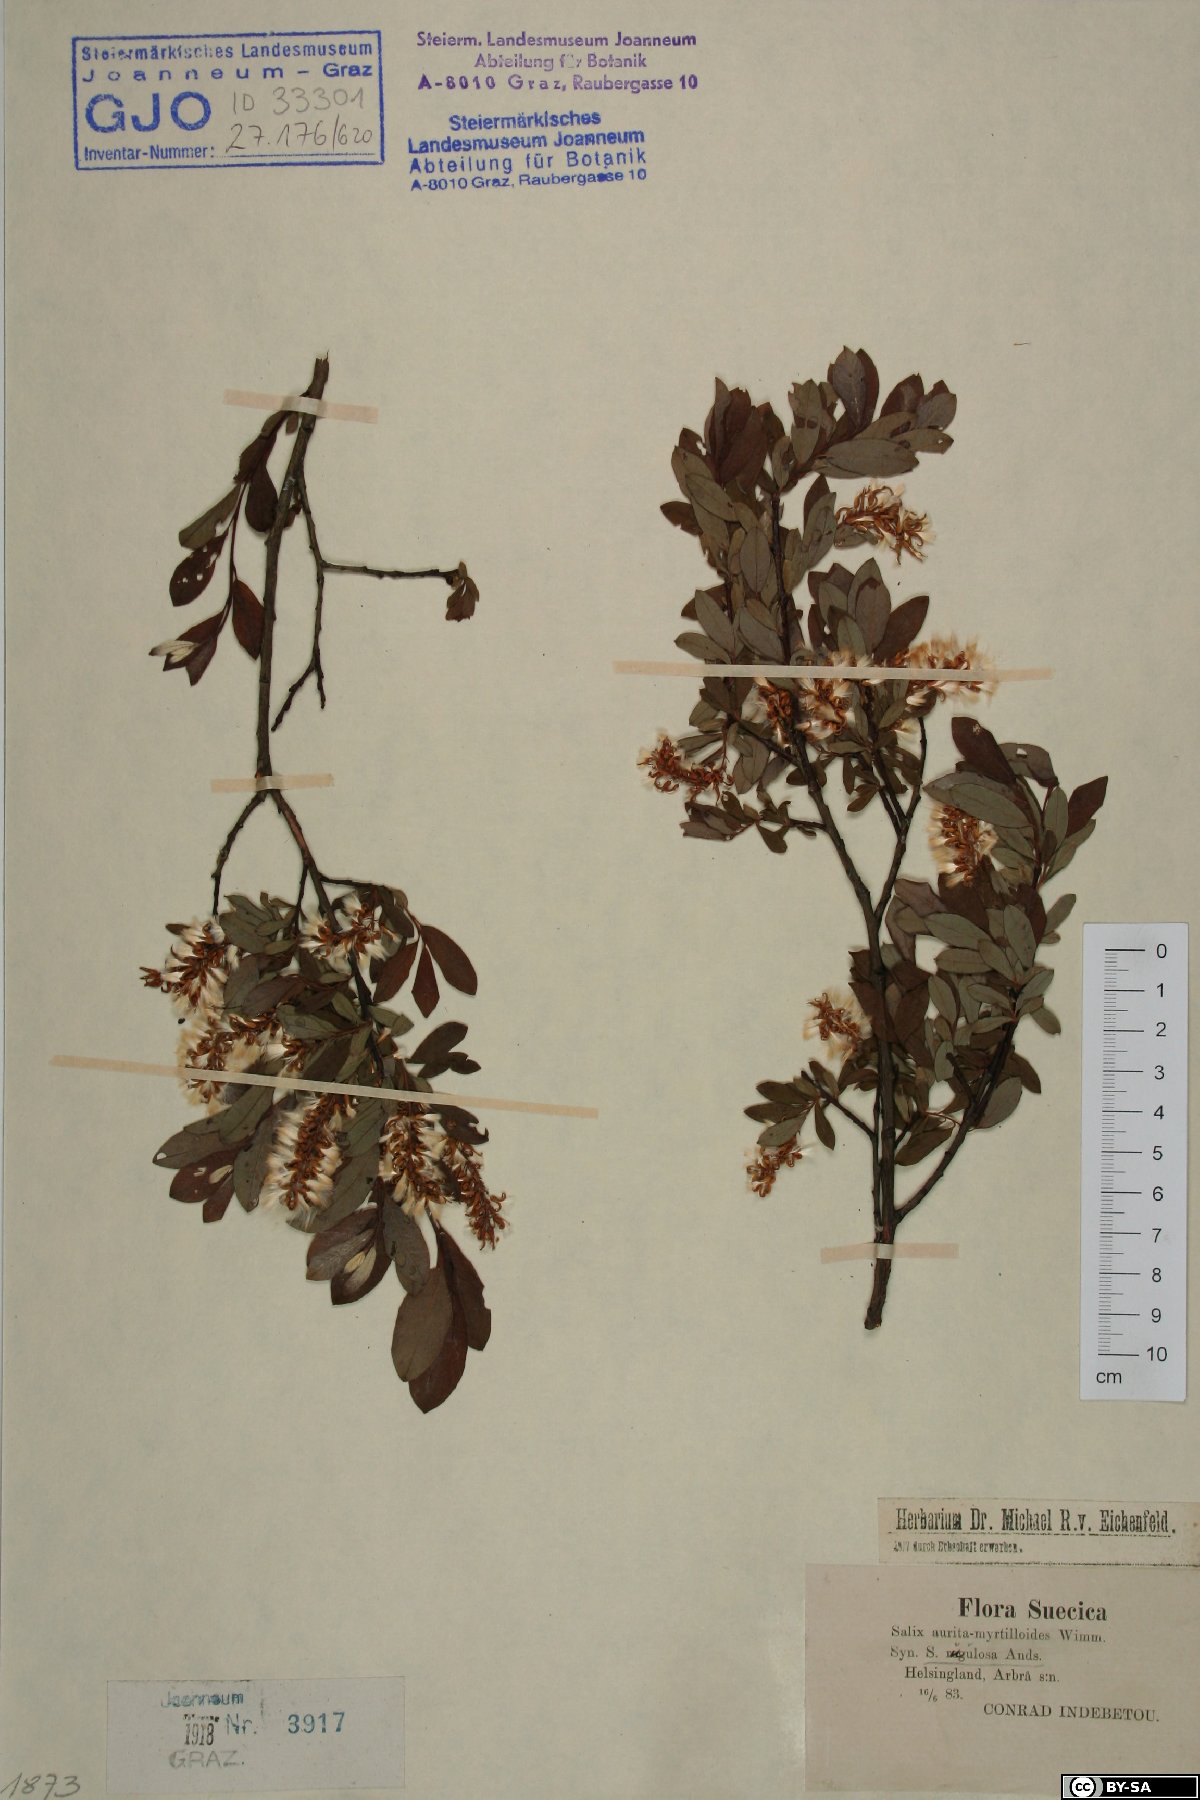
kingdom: Plantae
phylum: Tracheophyta
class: Magnoliopsida
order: Malpighiales
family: Salicaceae
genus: Salix
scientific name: Salix aurita
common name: Eared willow
